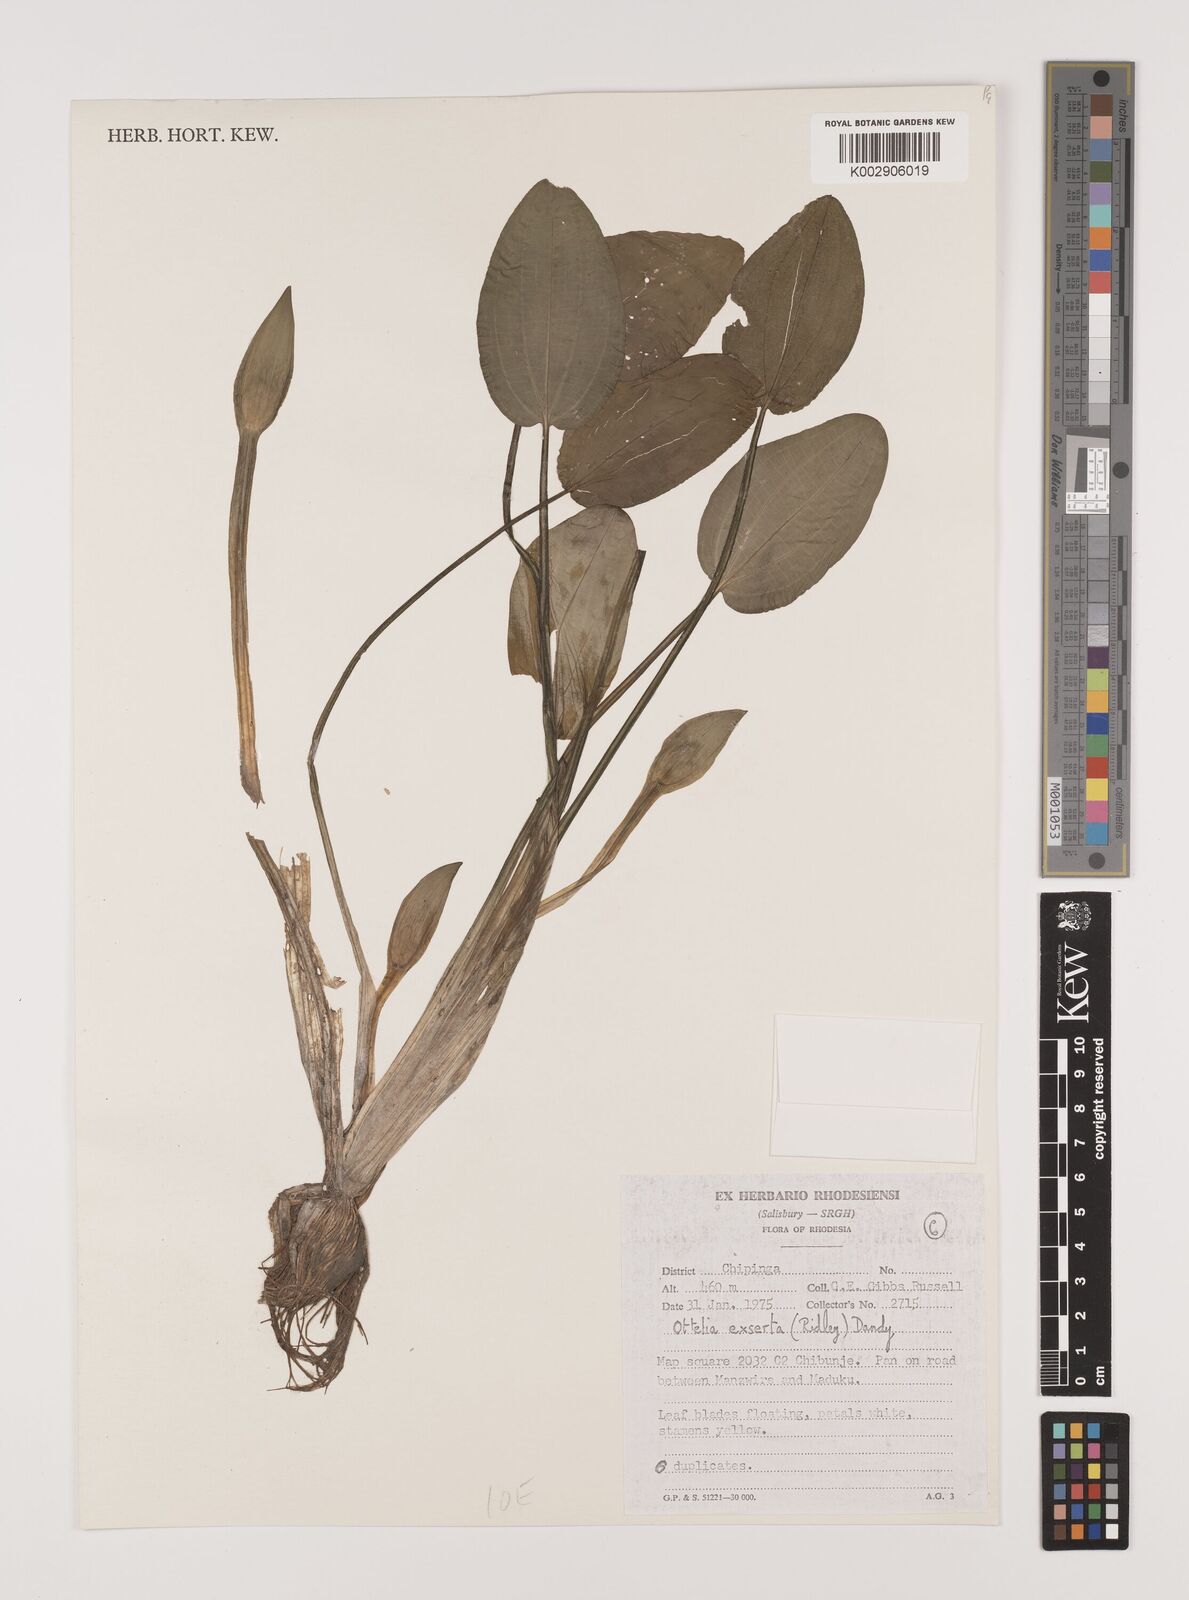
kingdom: Plantae
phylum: Tracheophyta
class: Liliopsida
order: Alismatales
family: Hydrocharitaceae
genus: Ottelia
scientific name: Ottelia exserta
